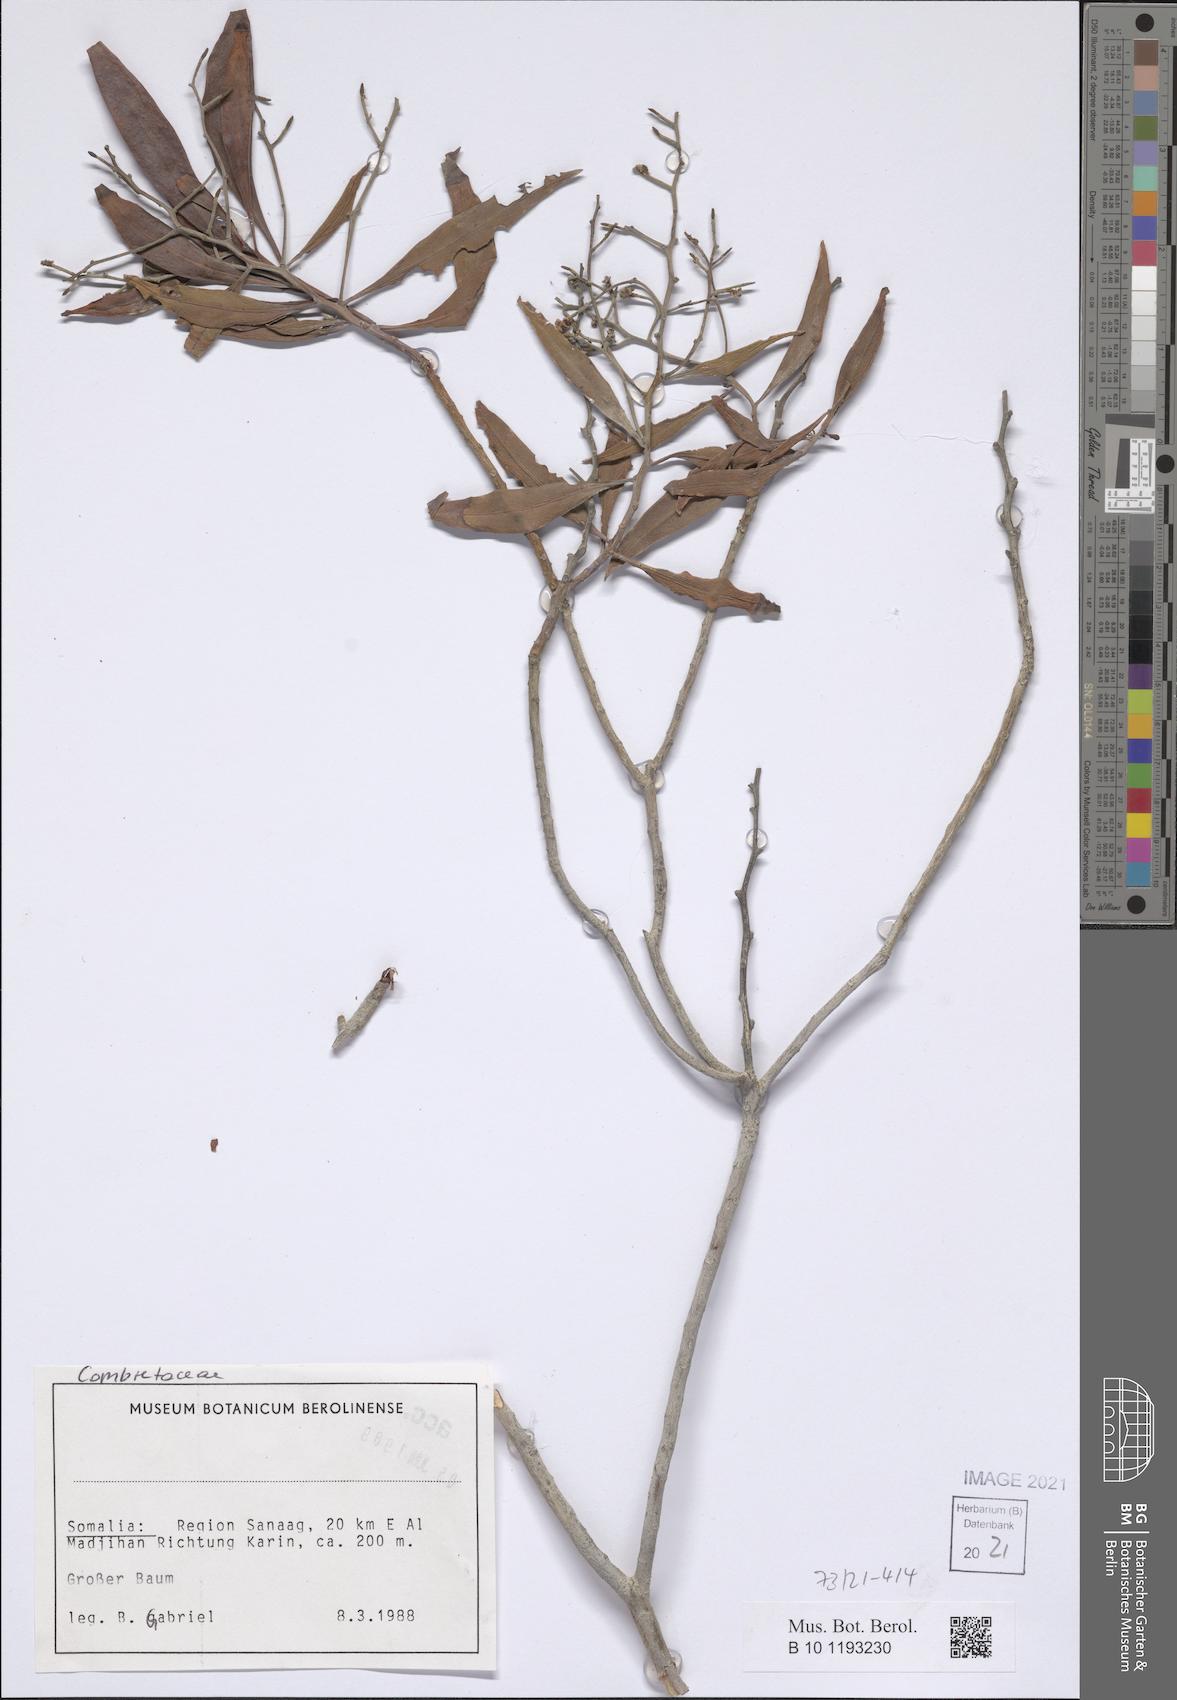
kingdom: Plantae
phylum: Tracheophyta
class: Magnoliopsida
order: Myrtales
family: Combretaceae
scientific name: Combretaceae
